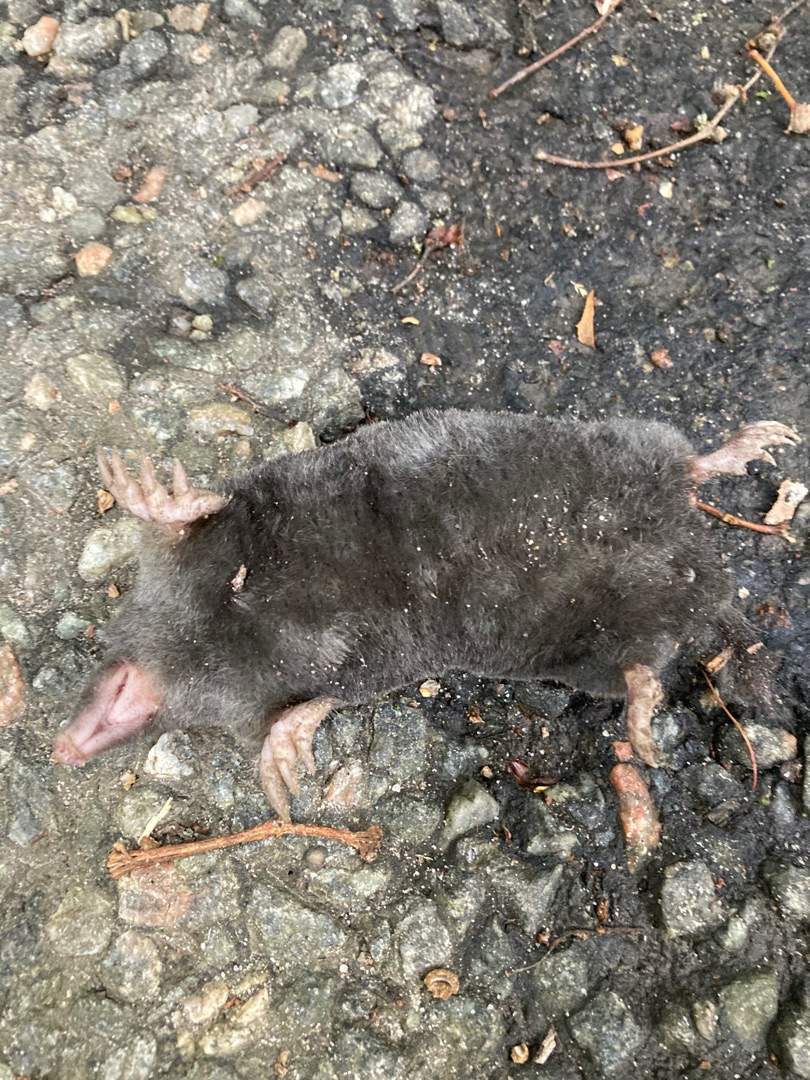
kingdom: Animalia
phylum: Chordata
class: Mammalia
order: Soricomorpha
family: Talpidae
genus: Talpa
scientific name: Talpa europaea
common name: Muldvarp
